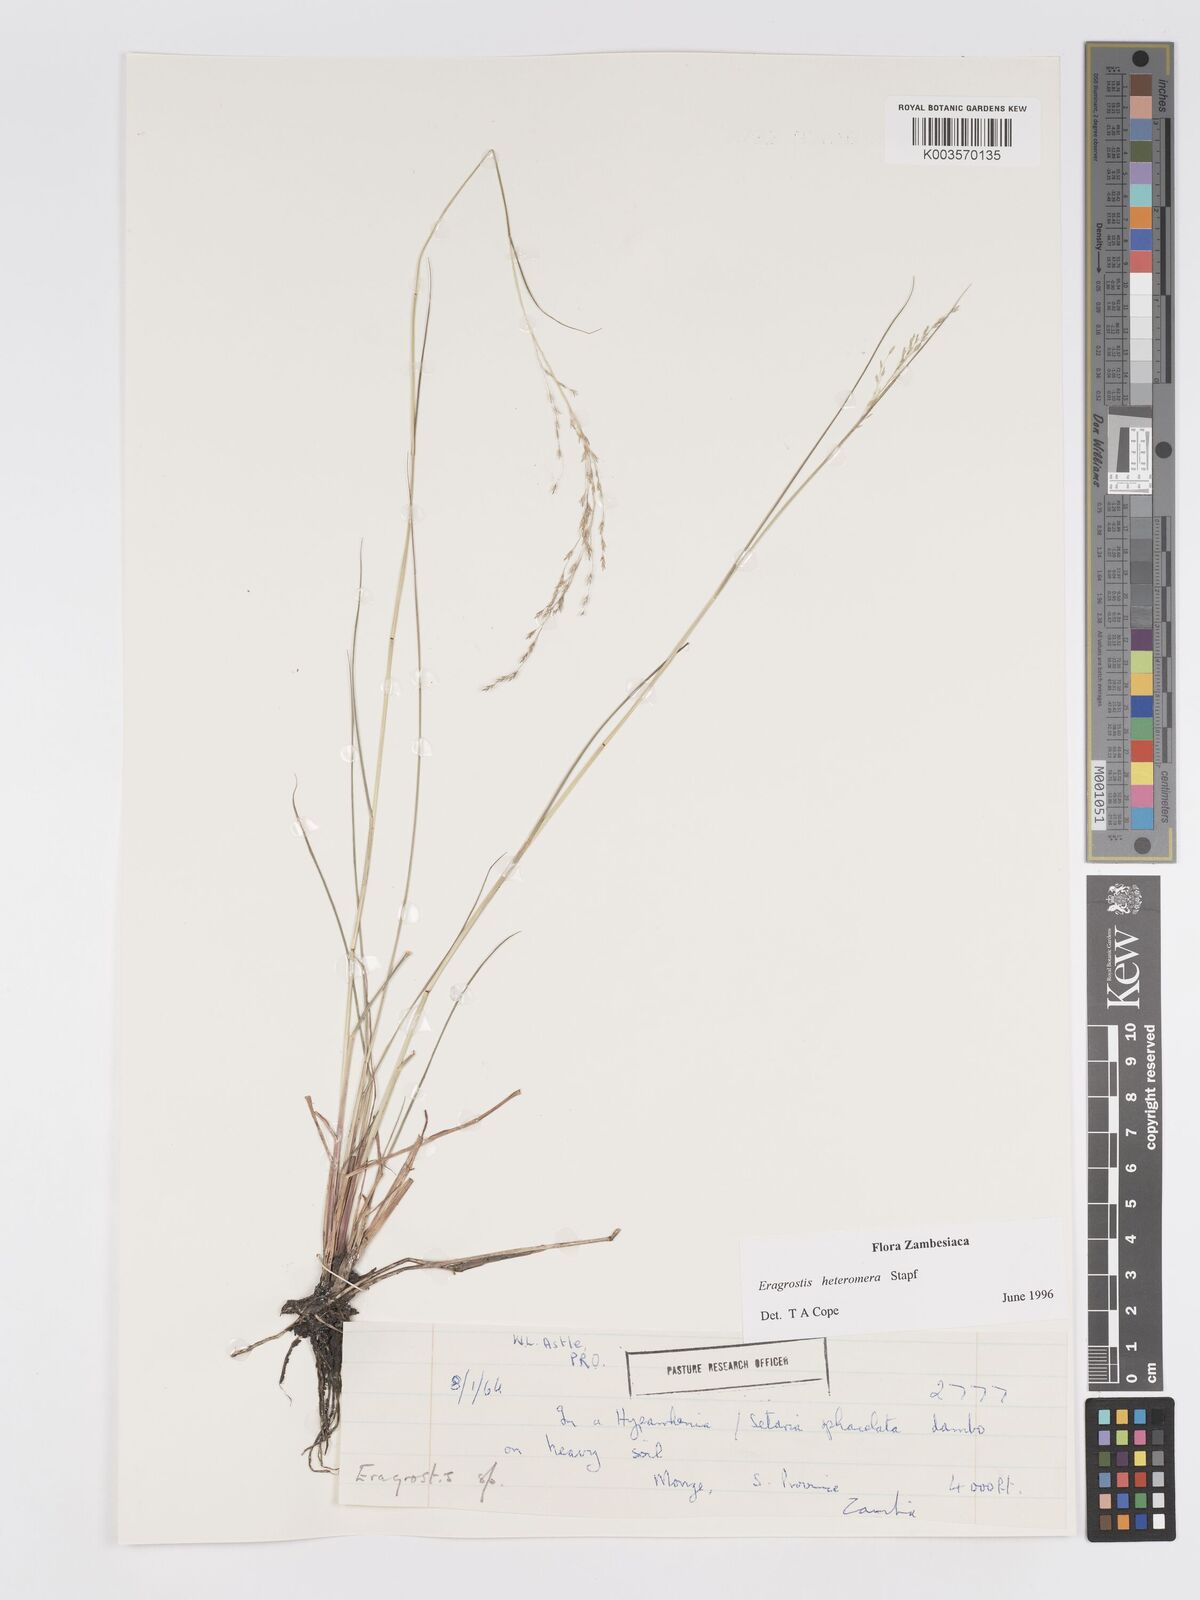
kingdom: Plantae
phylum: Tracheophyta
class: Liliopsida
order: Poales
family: Poaceae
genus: Eragrostis
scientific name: Eragrostis heteromera
